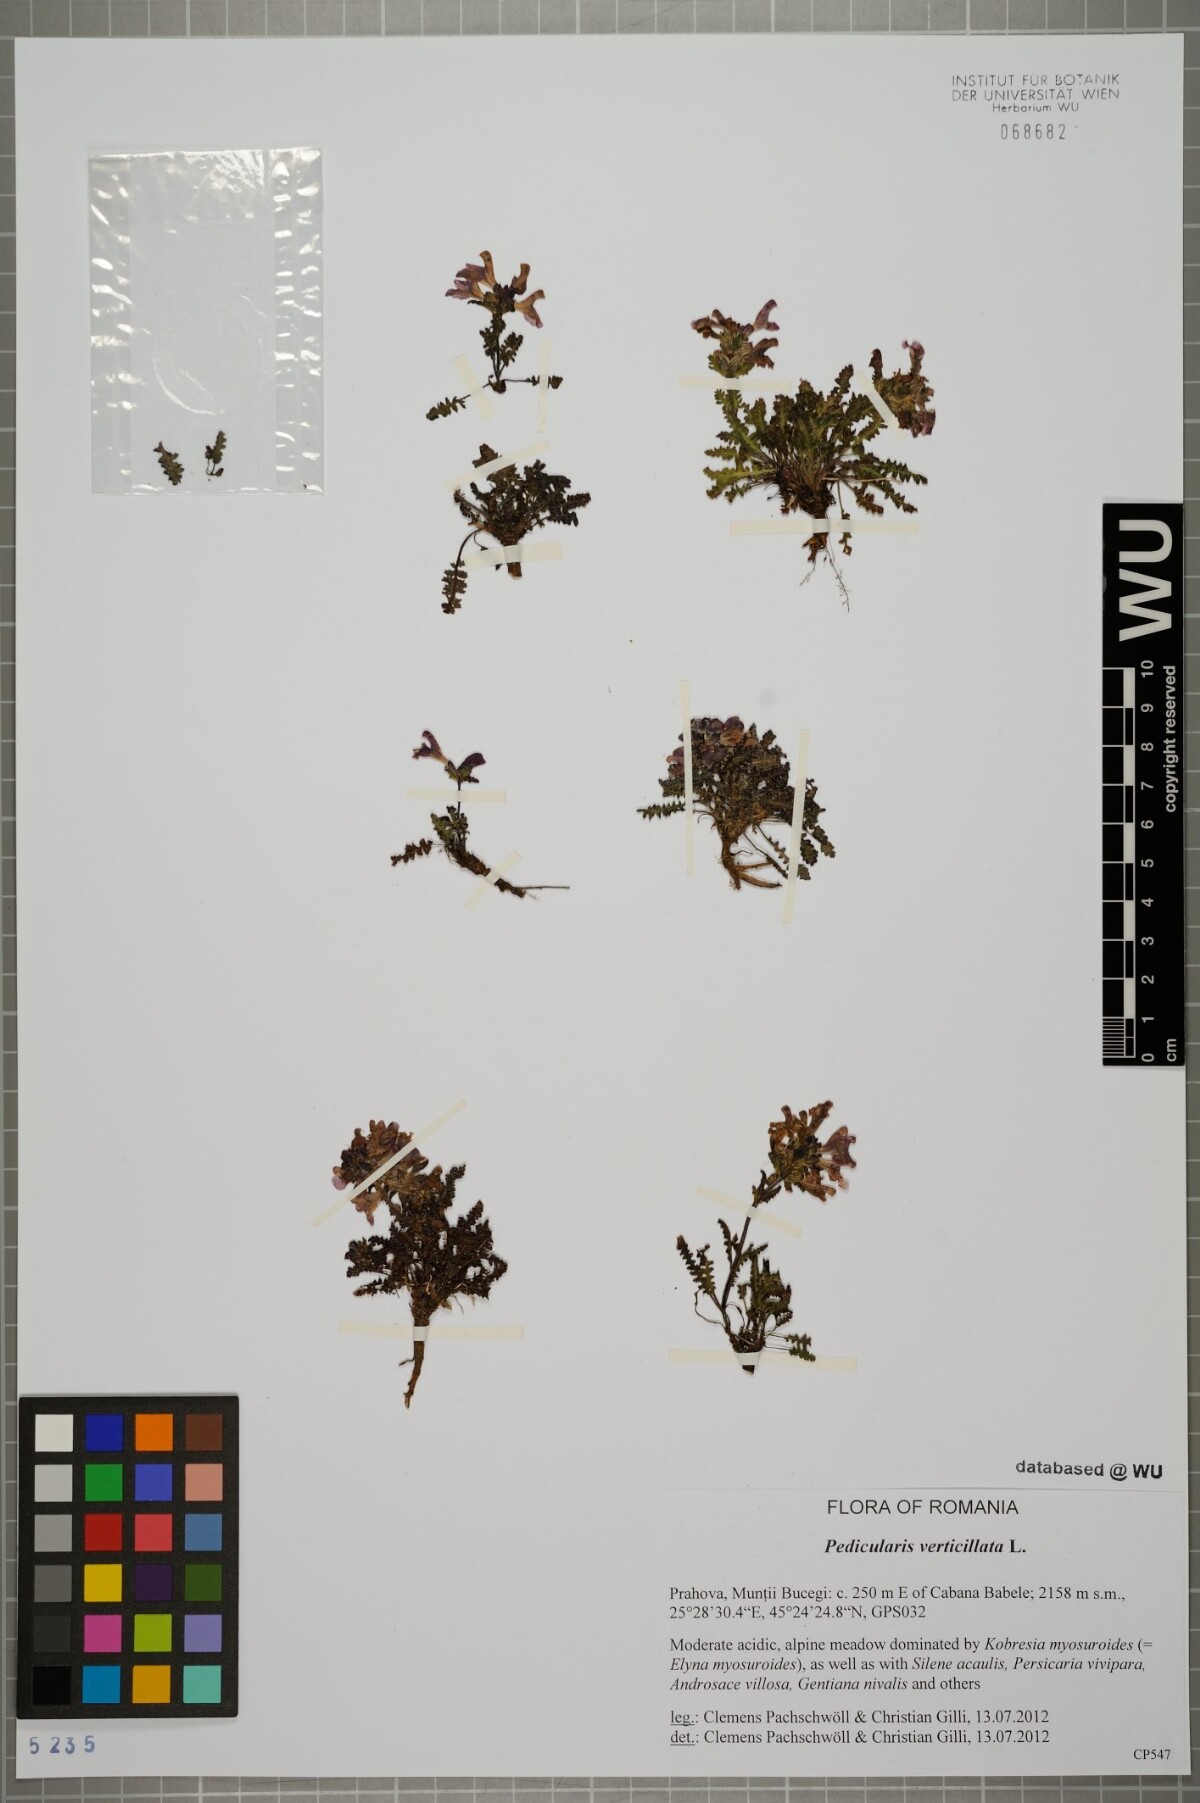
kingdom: Plantae
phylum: Tracheophyta
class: Magnoliopsida
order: Lamiales
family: Orobanchaceae
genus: Pedicularis
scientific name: Pedicularis verticillata
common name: Whorled lousewort
